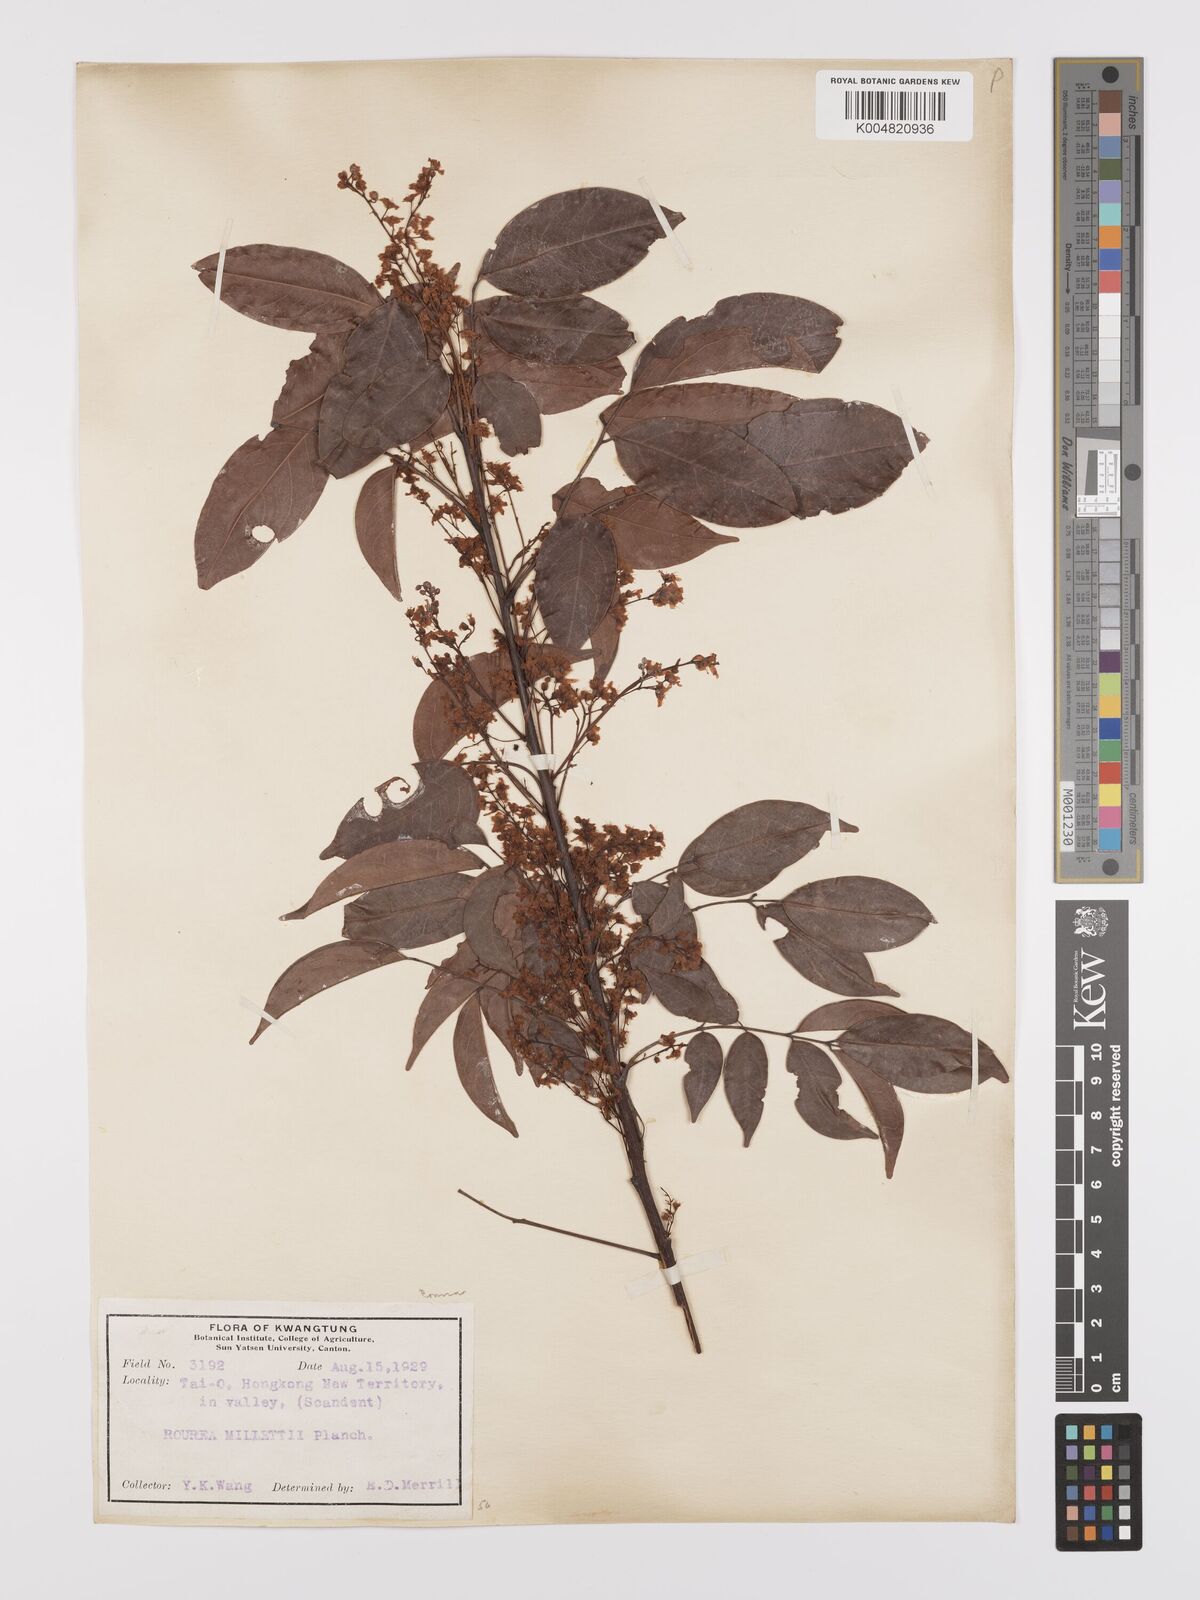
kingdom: Plantae
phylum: Tracheophyta
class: Magnoliopsida
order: Oxalidales
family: Connaraceae
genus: Rourea
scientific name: Rourea
